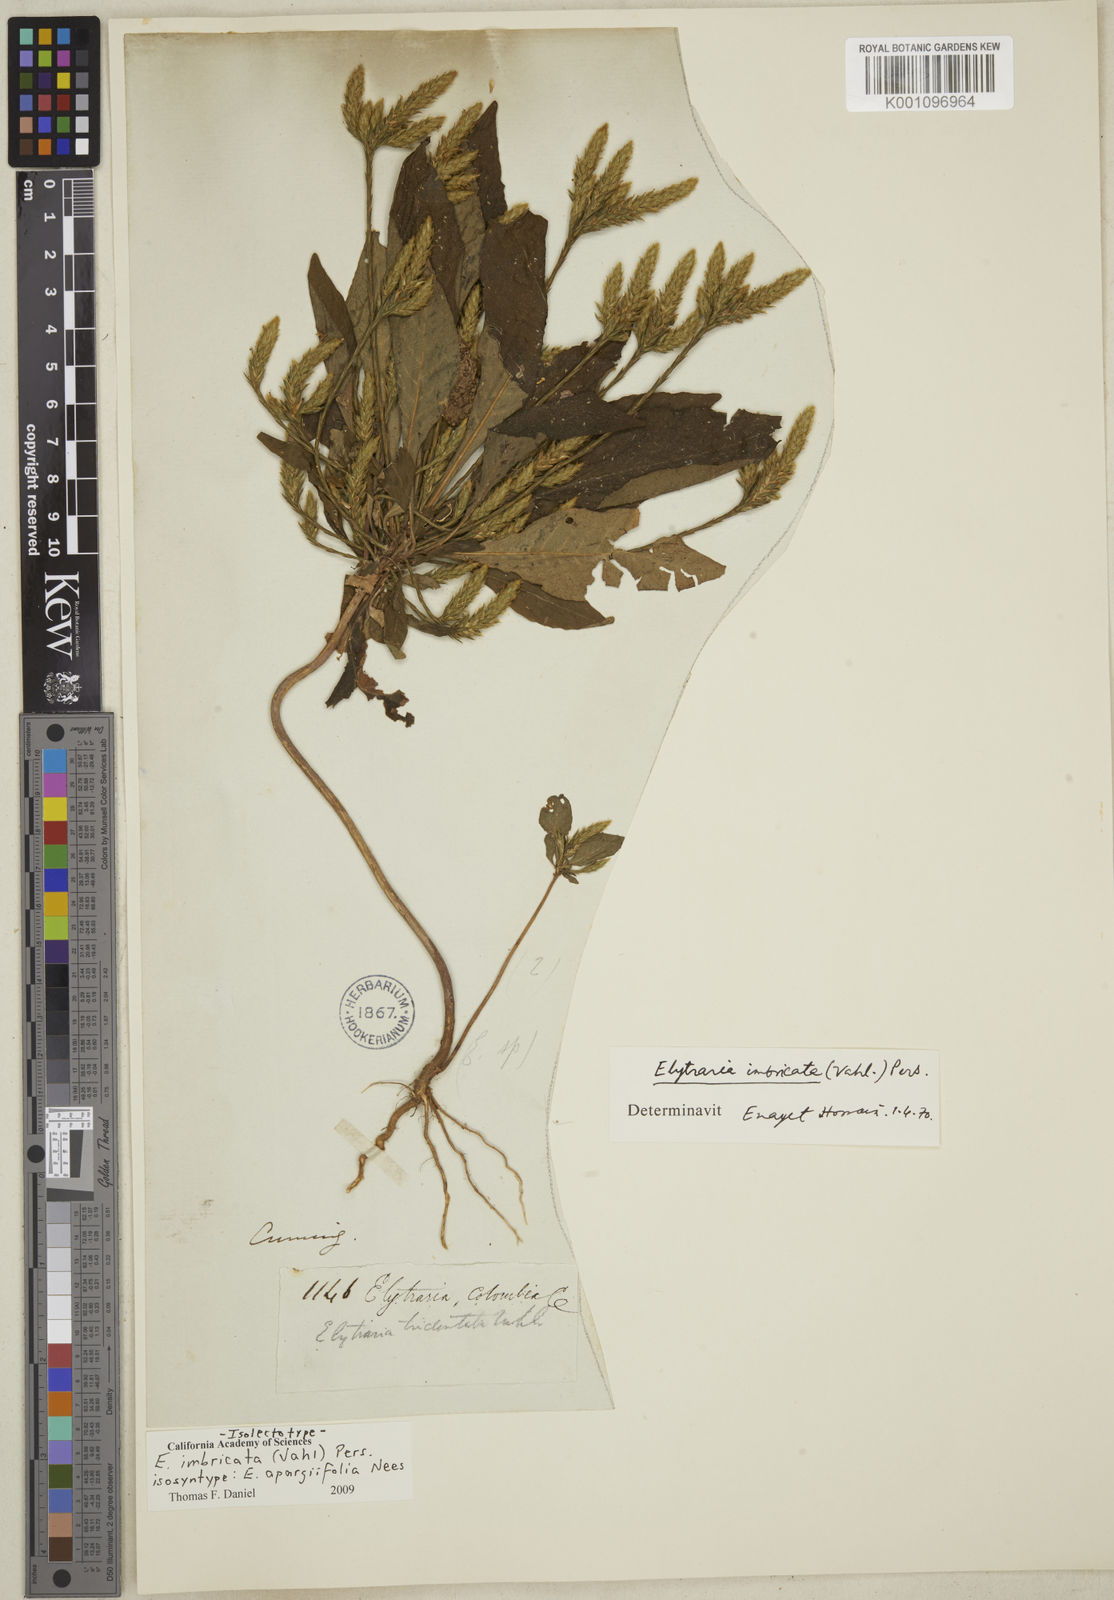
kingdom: Plantae
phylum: Tracheophyta
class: Magnoliopsida
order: Lamiales
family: Acanthaceae
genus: Elytraria
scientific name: Elytraria imbricata
